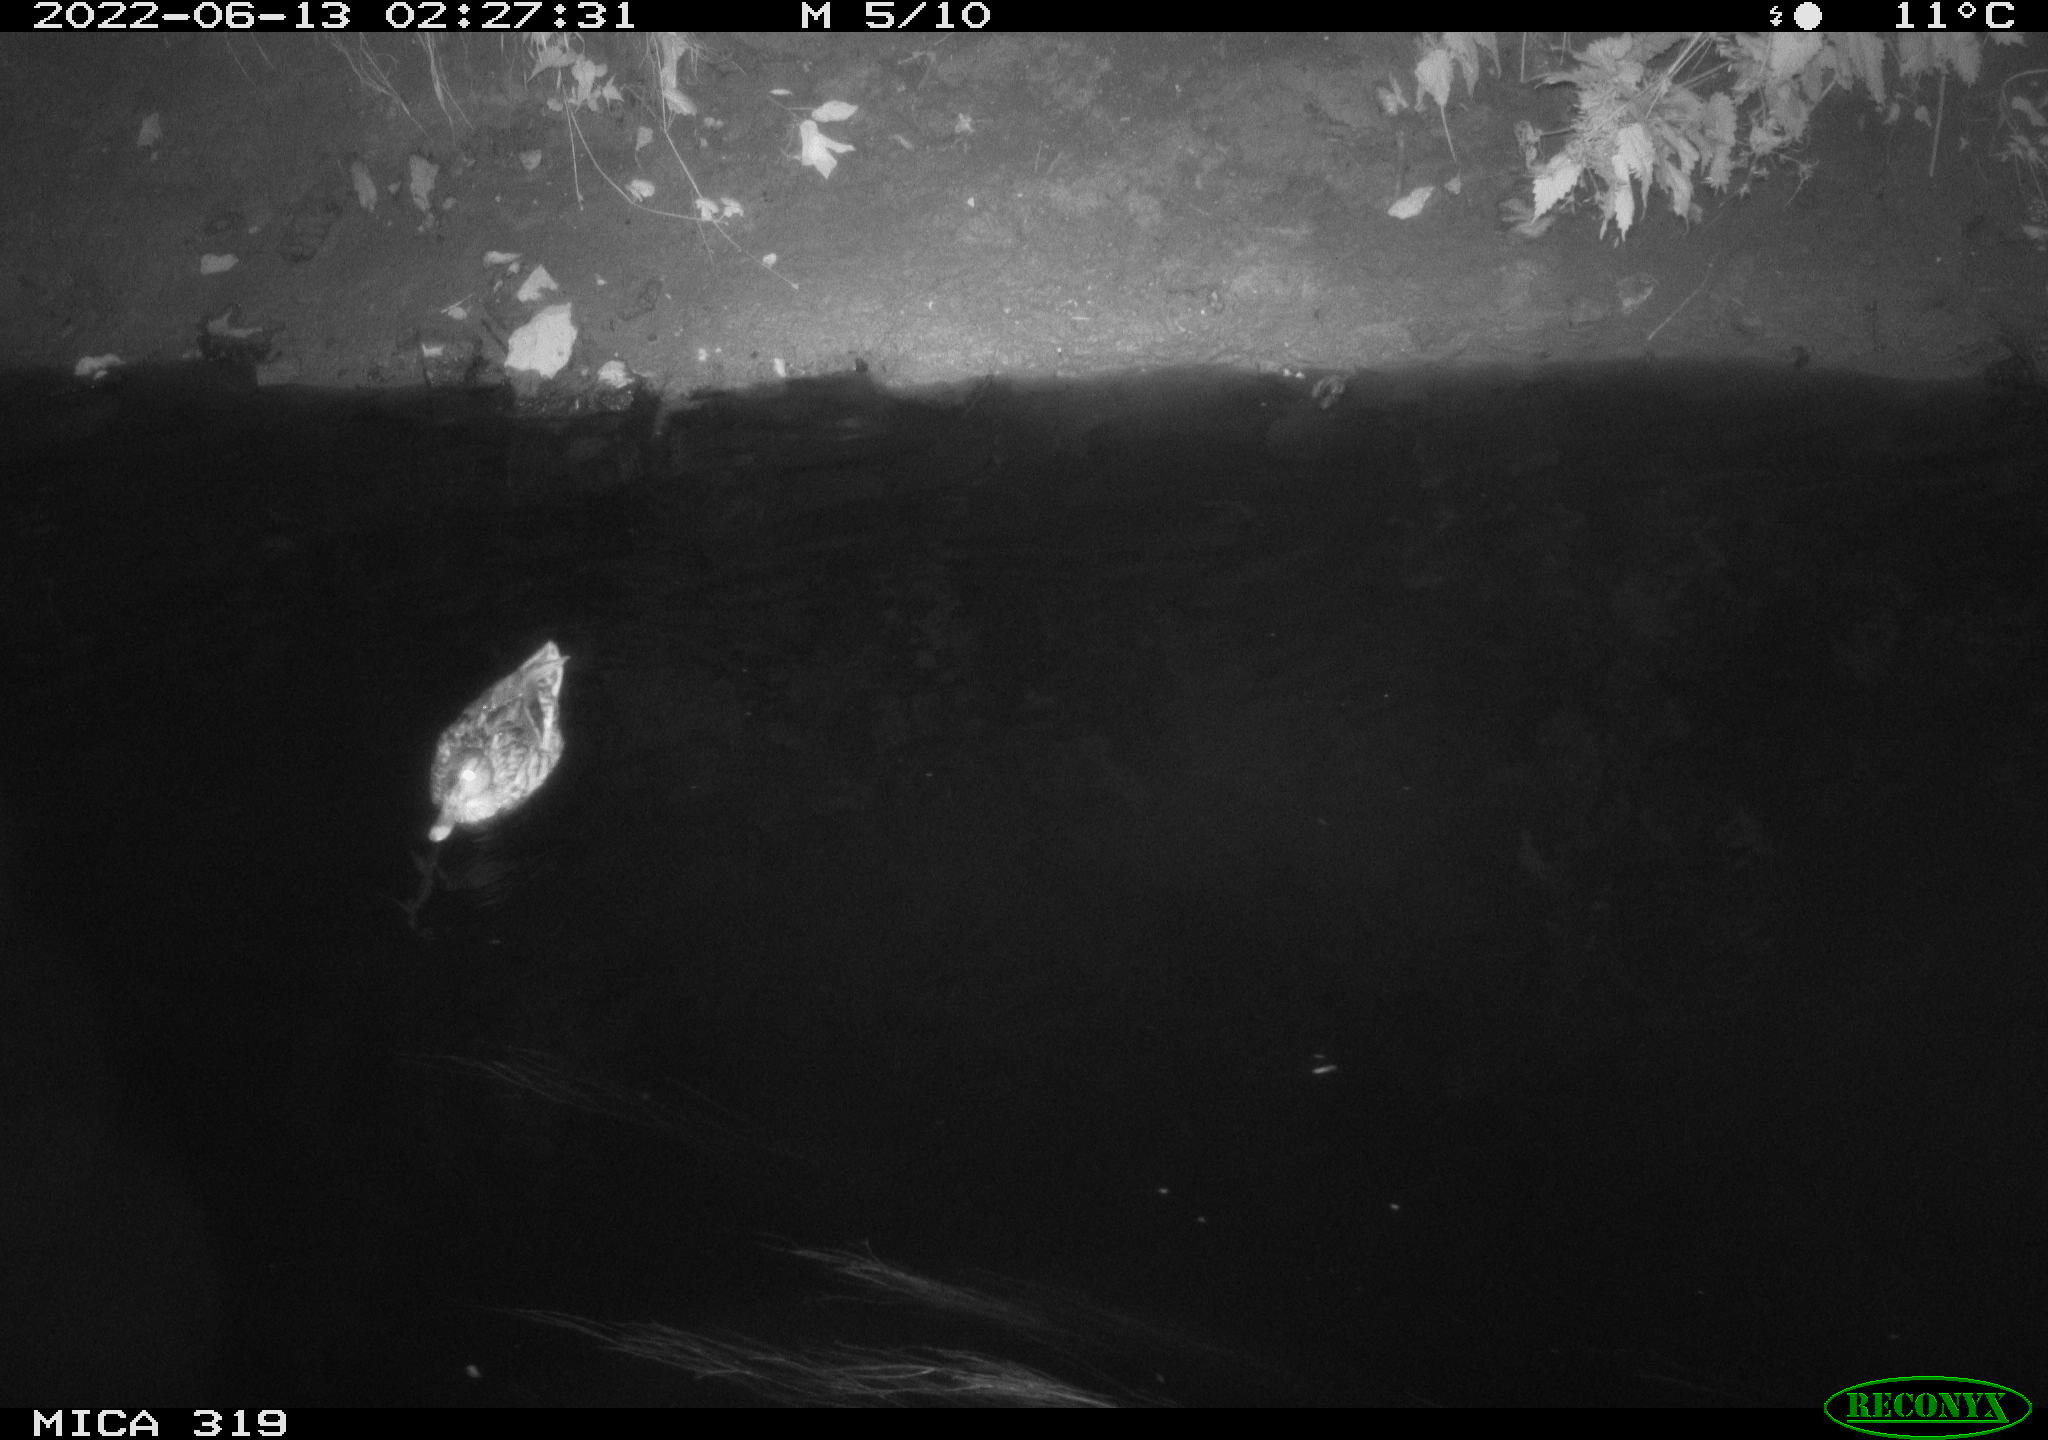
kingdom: Animalia
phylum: Chordata
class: Aves
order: Anseriformes
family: Anatidae
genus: Anas
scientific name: Anas
